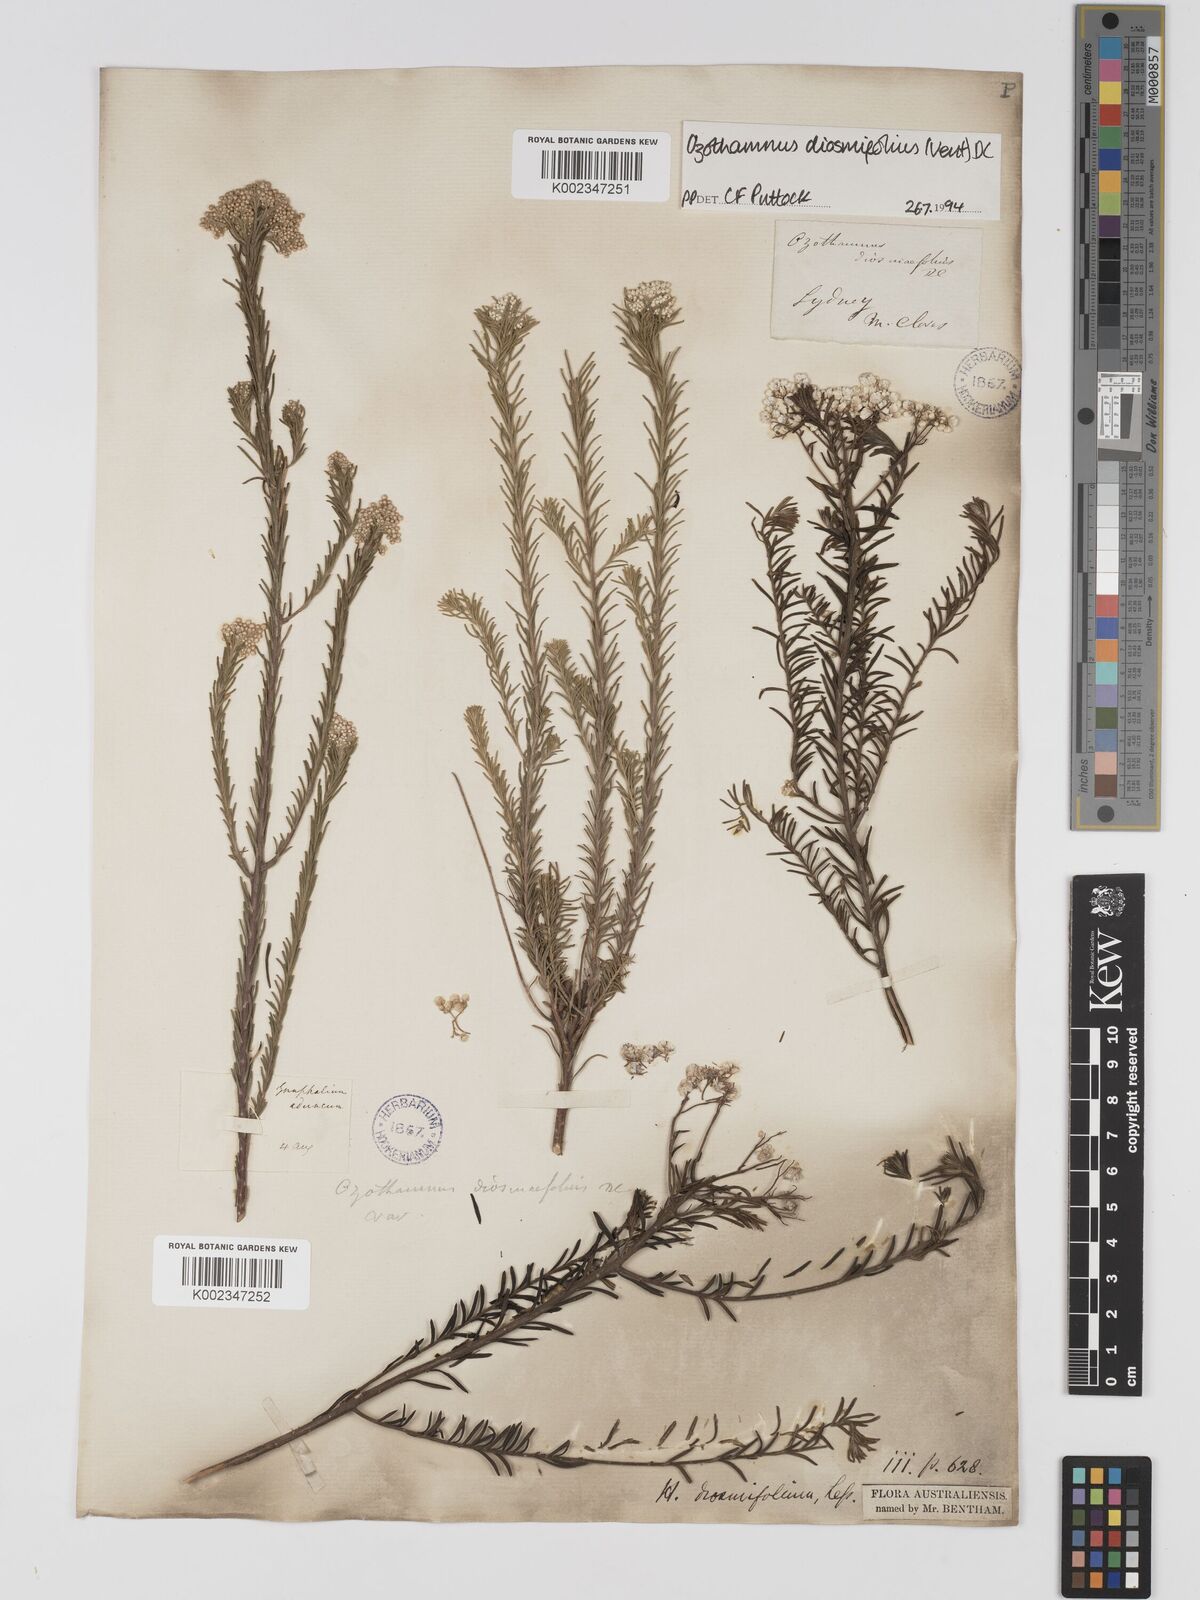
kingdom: Plantae
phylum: Tracheophyta
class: Magnoliopsida
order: Asterales
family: Asteraceae
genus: Ozothamnus
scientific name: Ozothamnus diosmifolius
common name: White-dogwood
